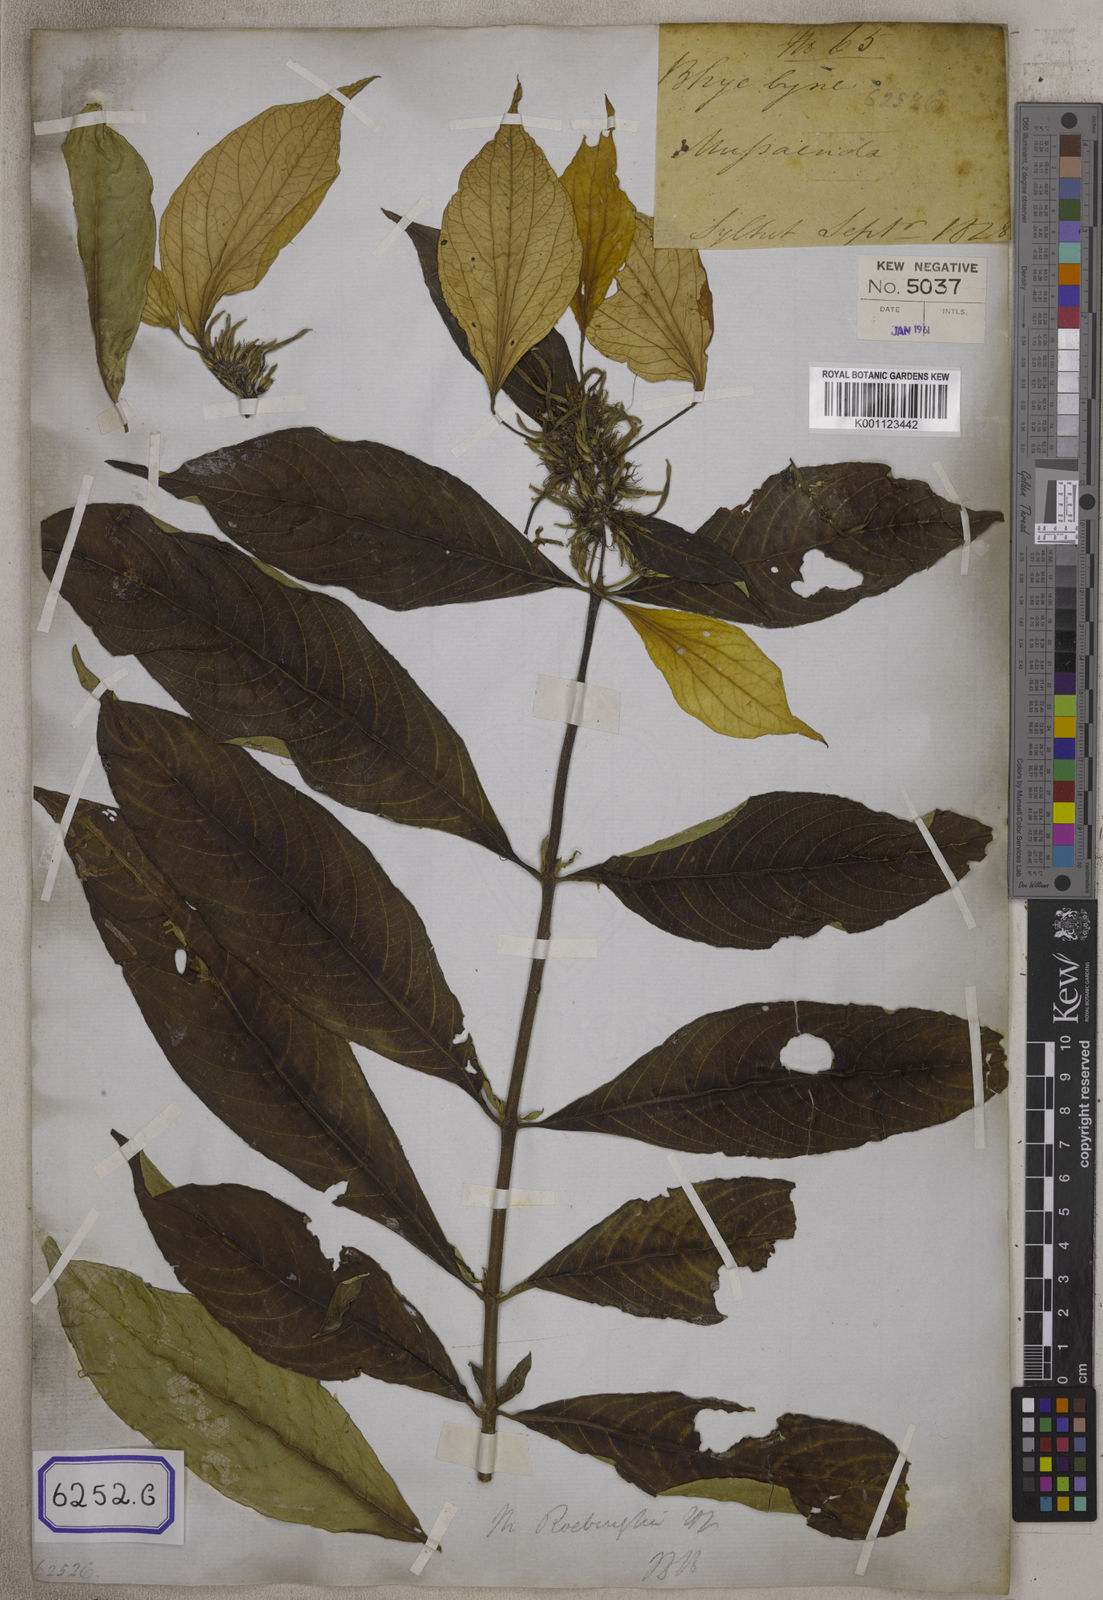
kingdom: Plantae
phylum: Tracheophyta
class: Magnoliopsida
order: Gentianales
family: Rubiaceae
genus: Mussaenda
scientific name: Mussaenda
